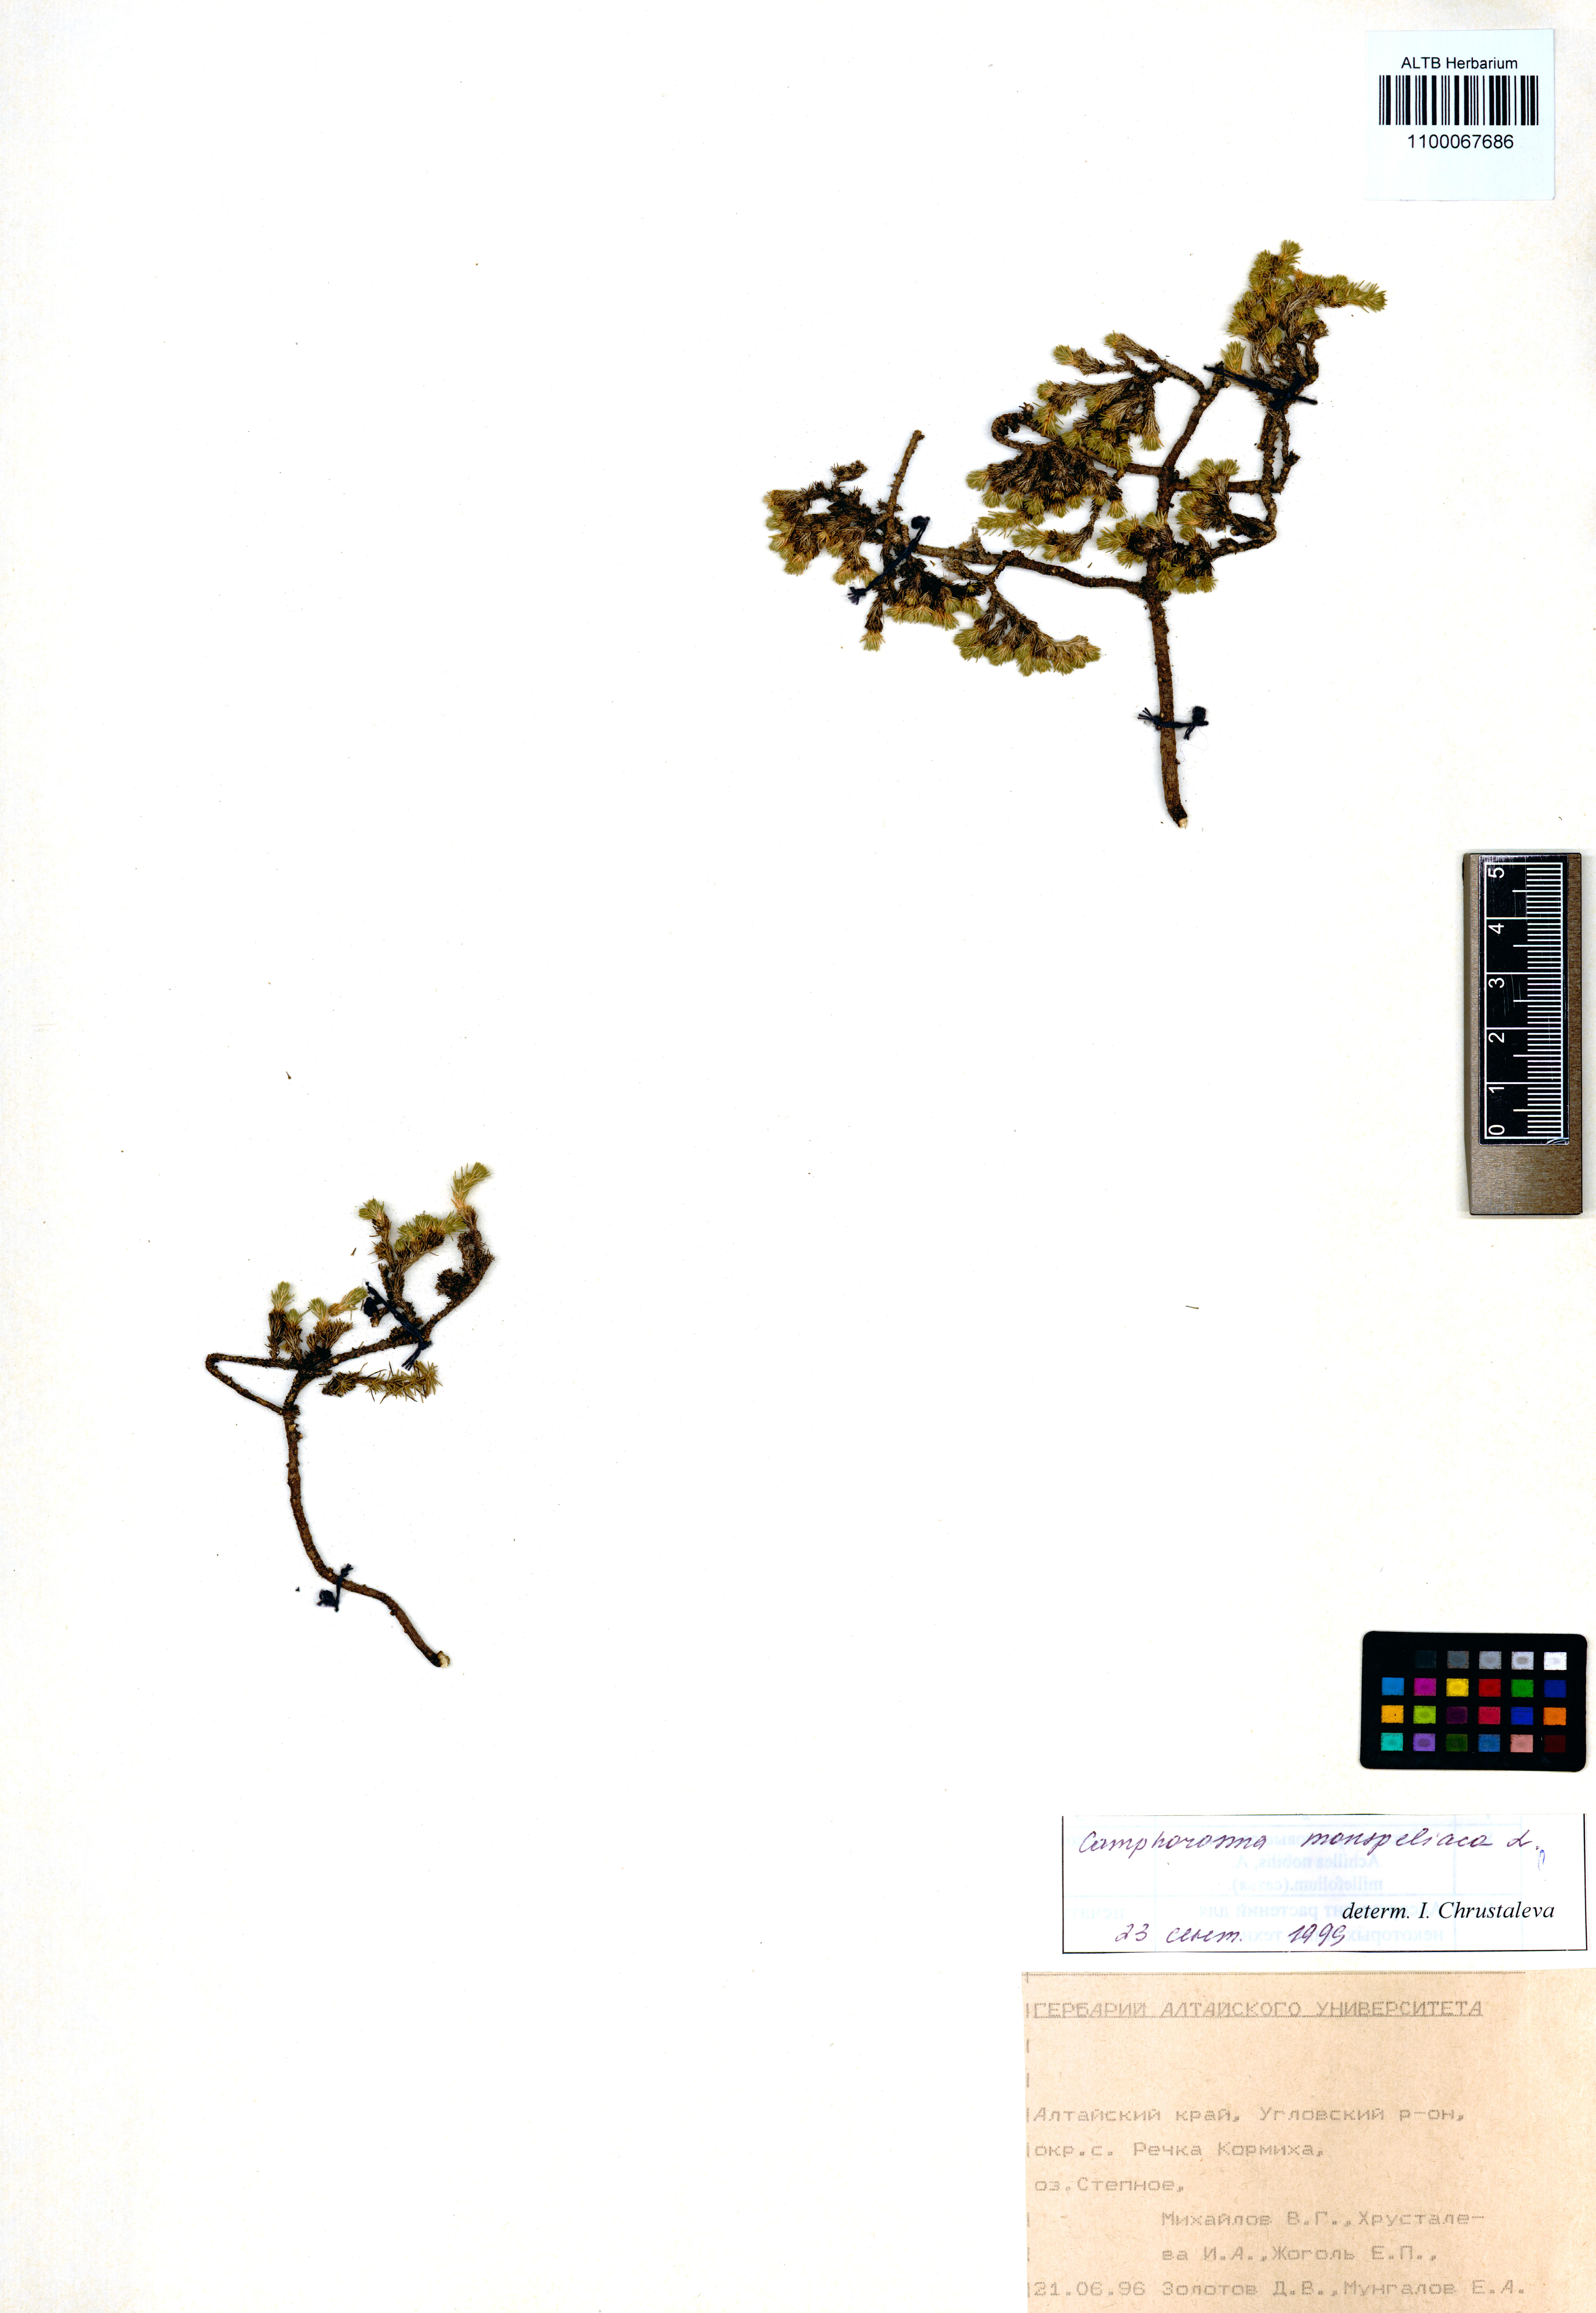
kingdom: Plantae
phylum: Tracheophyta
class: Magnoliopsida
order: Caryophyllales
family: Amaranthaceae
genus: Camphorosma
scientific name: Camphorosma monspeliaca
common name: Camphorfume
